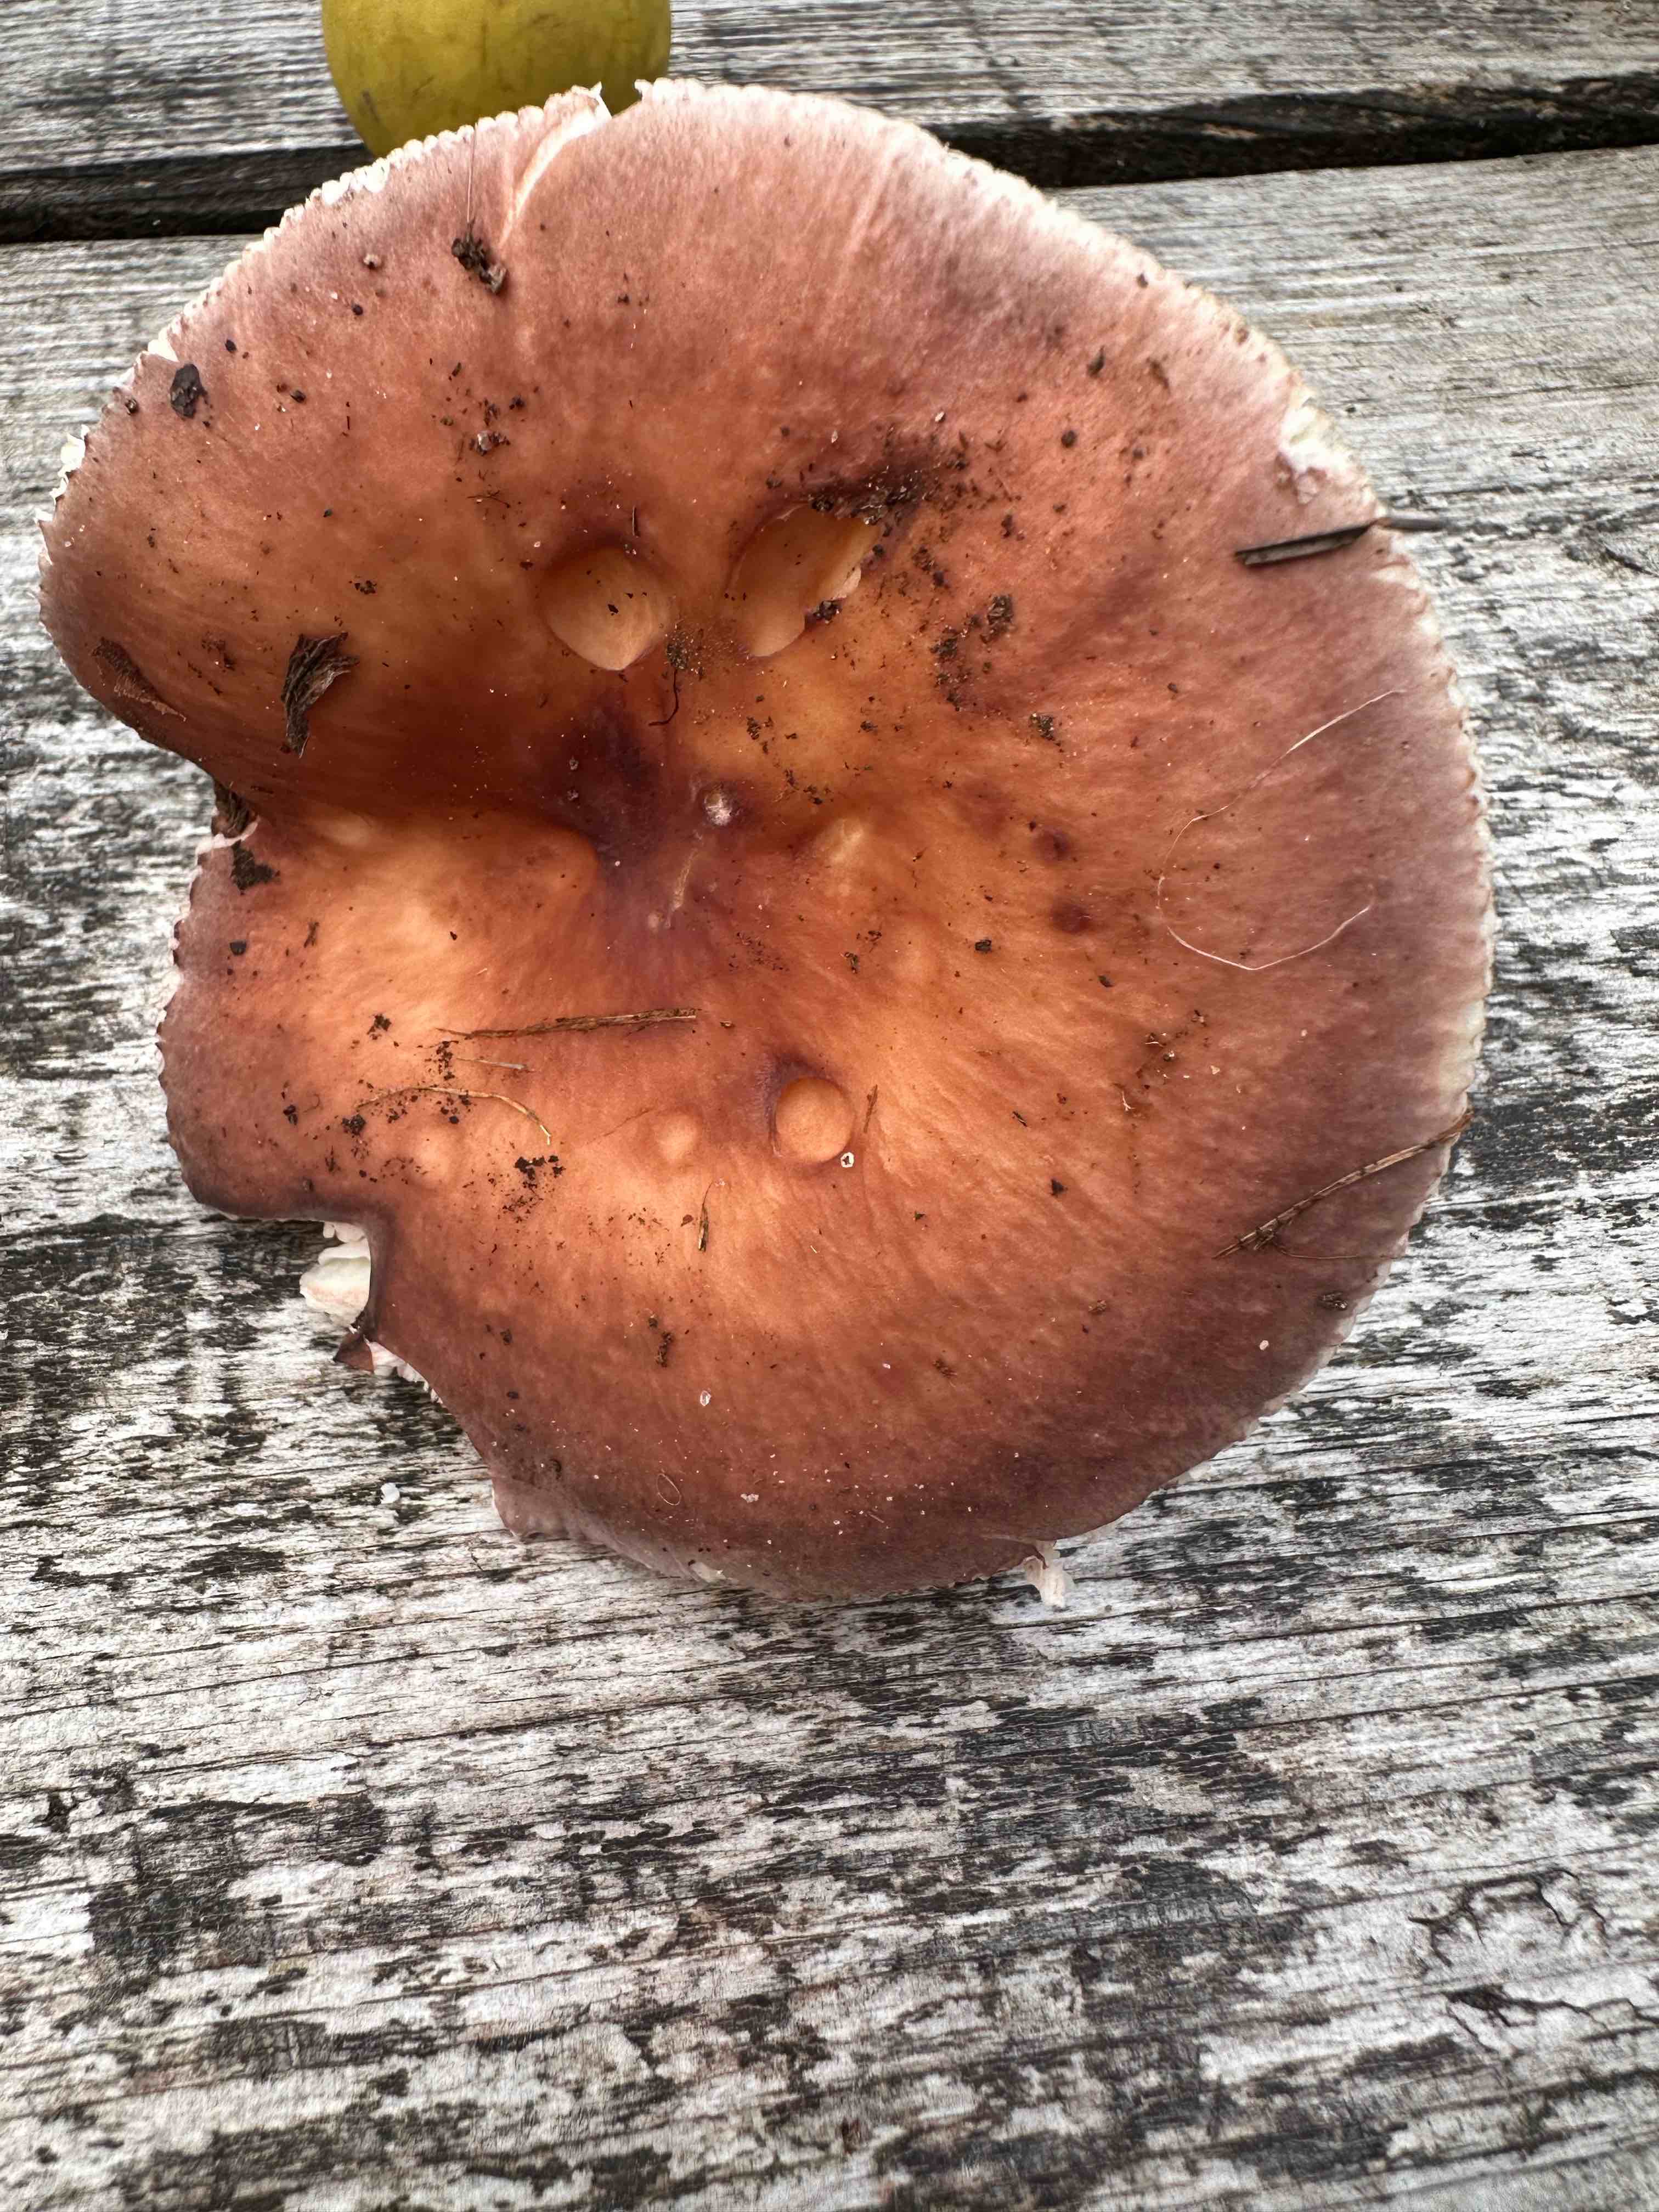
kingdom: Fungi
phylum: Basidiomycota
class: Agaricomycetes
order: Russulales
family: Russulaceae
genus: Russula
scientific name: Russula vesca
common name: spiselig skørhat
